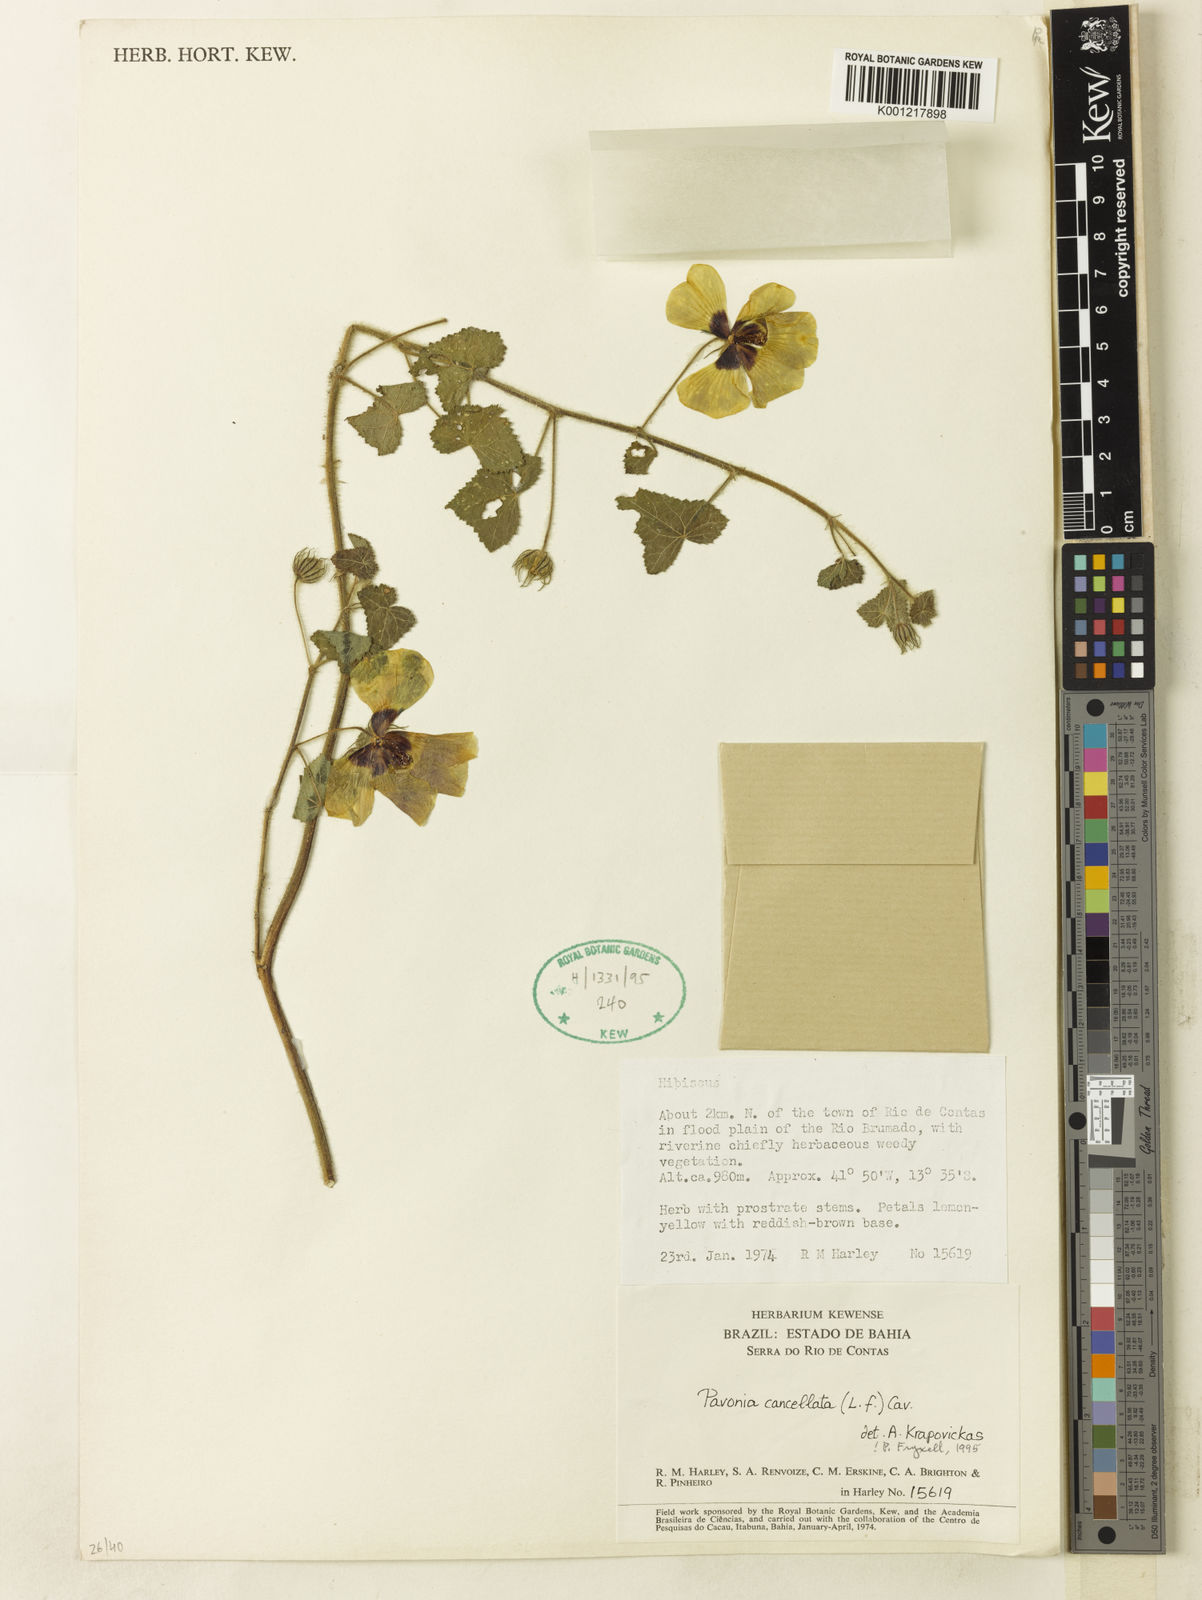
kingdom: Plantae
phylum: Tracheophyta
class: Magnoliopsida
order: Malvales
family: Malvaceae
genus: Pavonia
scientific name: Pavonia cancellata
